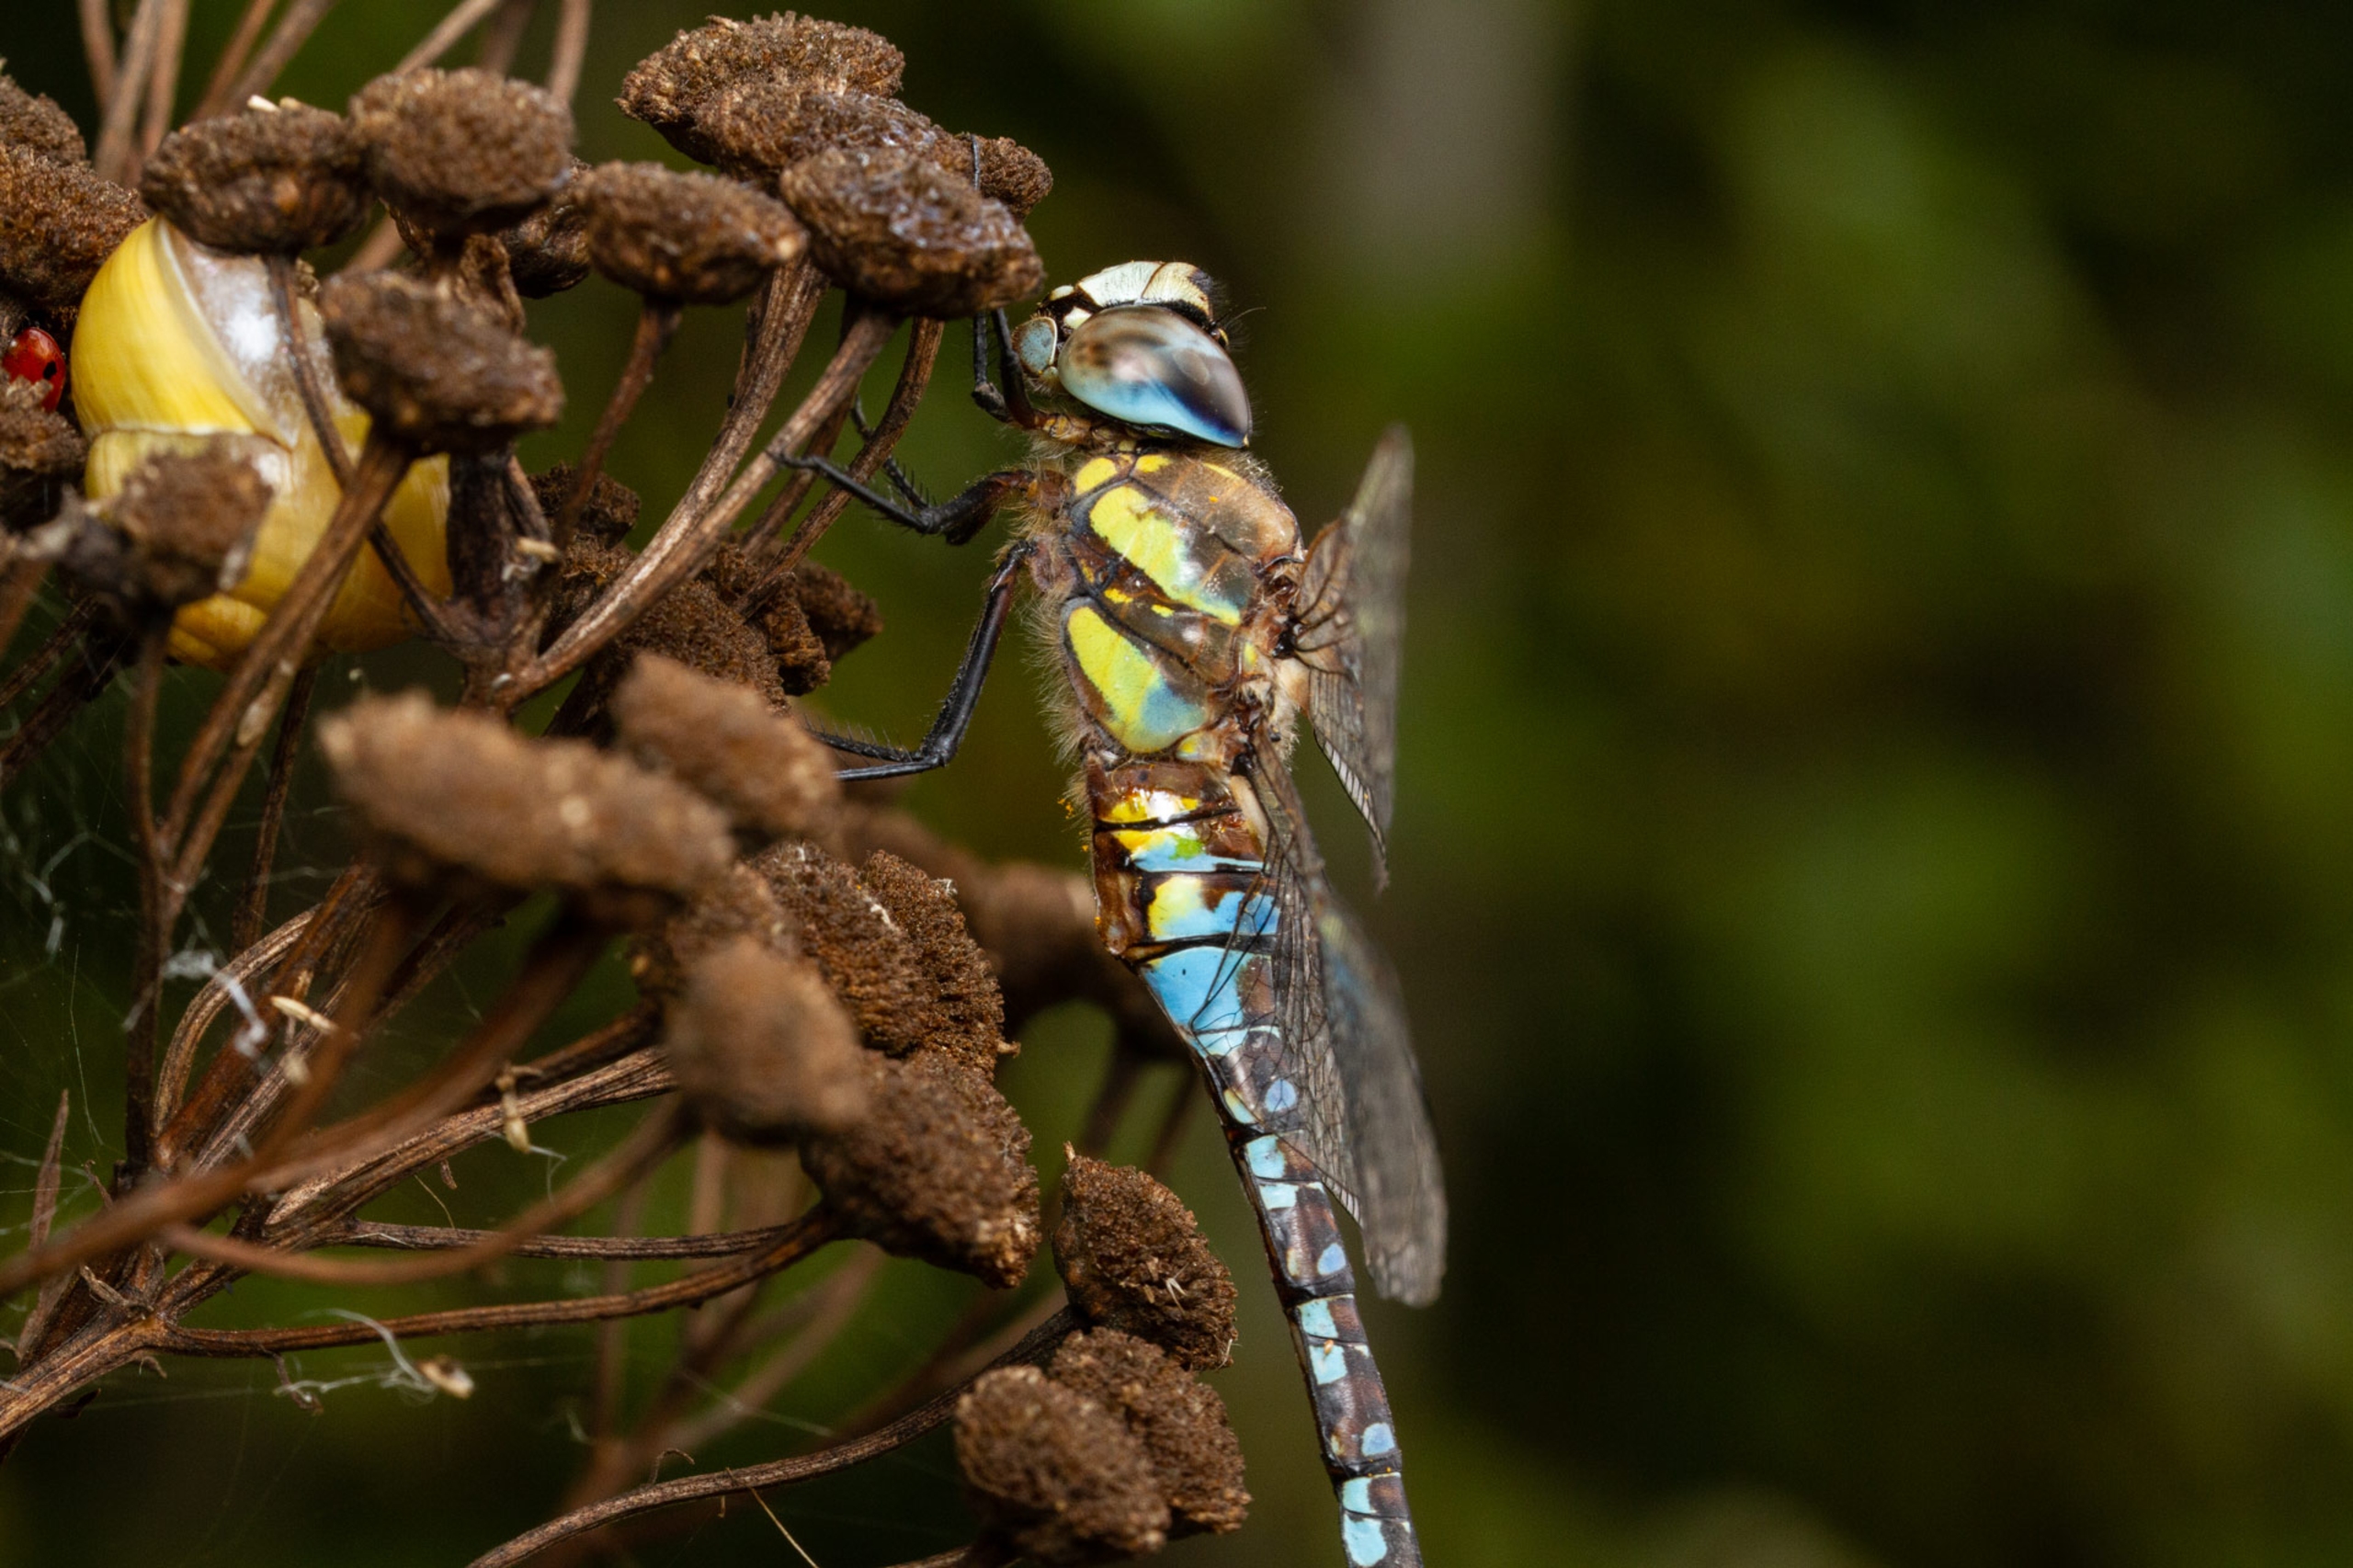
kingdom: Animalia
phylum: Arthropoda
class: Insecta
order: Odonata
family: Aeshnidae
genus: Aeshna
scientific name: Aeshna mixta
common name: Efterårs-mosaikguldsmed
